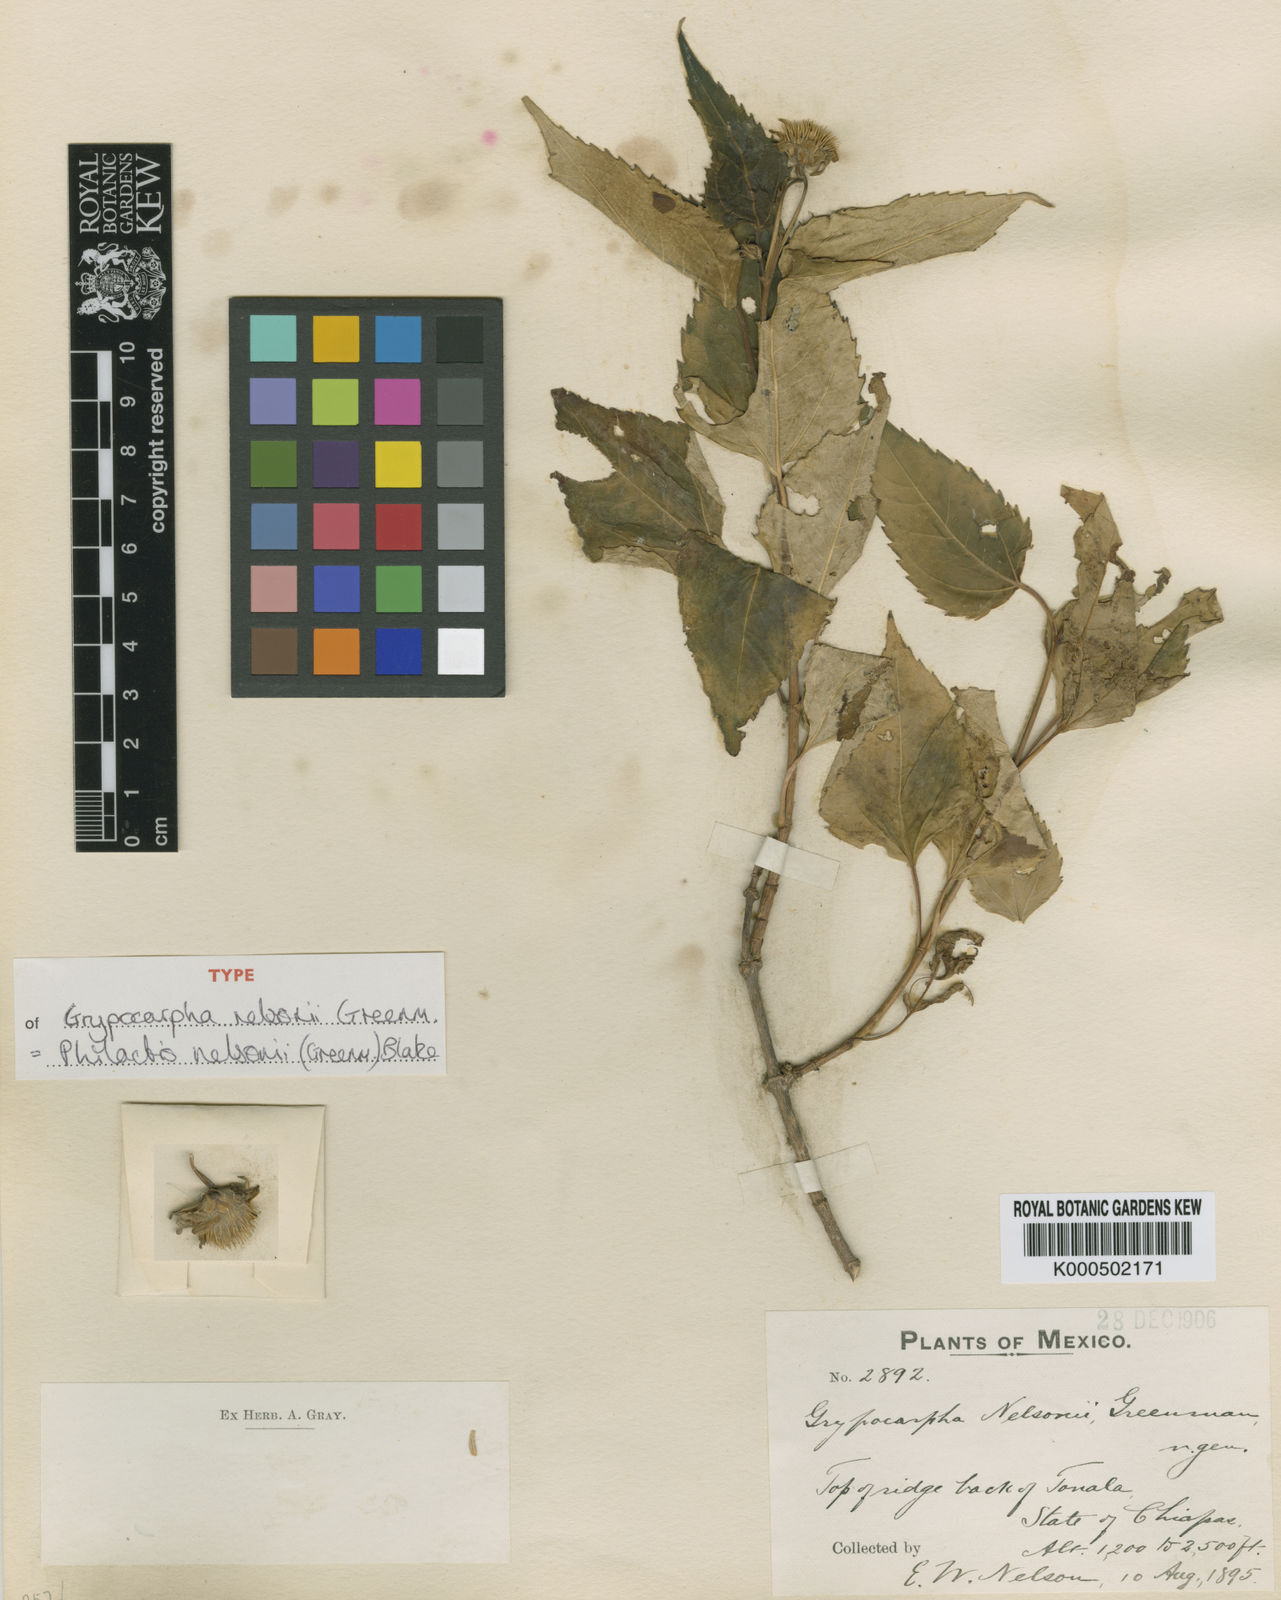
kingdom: Plantae
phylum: Tracheophyta
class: Magnoliopsida
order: Asterales
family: Asteraceae
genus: Philactis
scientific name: Philactis nelsonii
